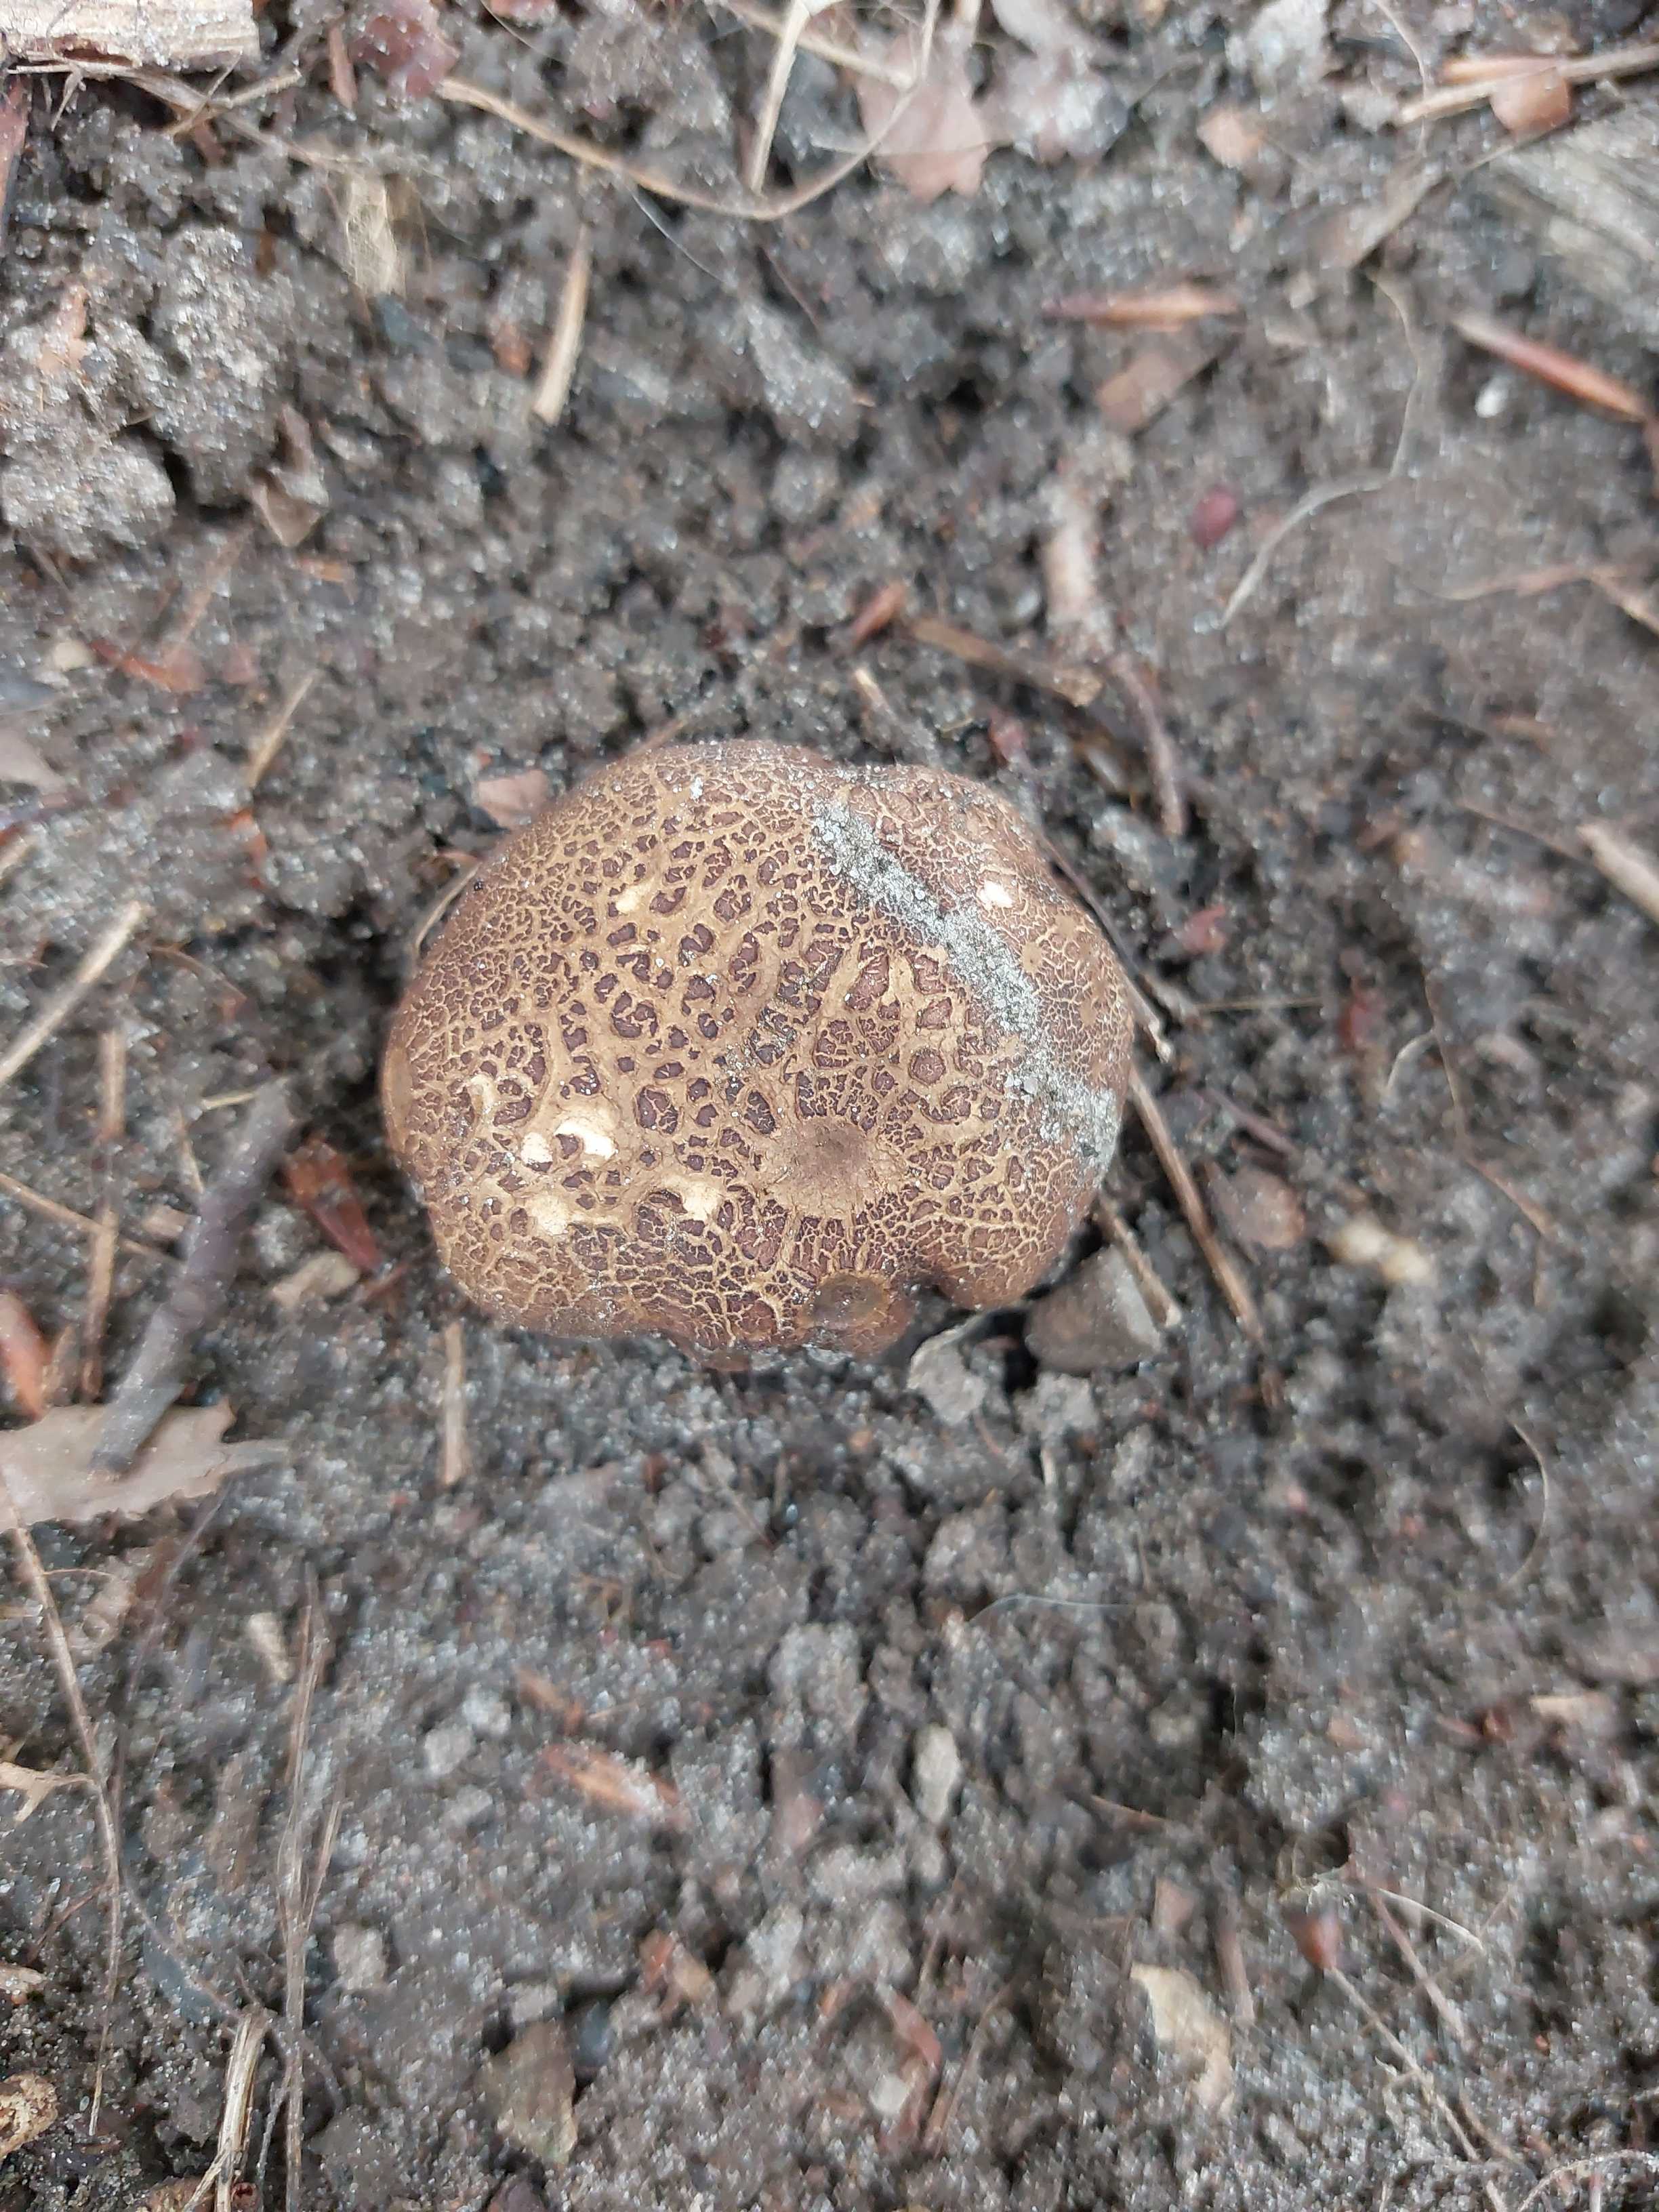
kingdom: Fungi
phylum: Basidiomycota
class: Agaricomycetes
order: Boletales
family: Sclerodermataceae
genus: Scleroderma
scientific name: Scleroderma
